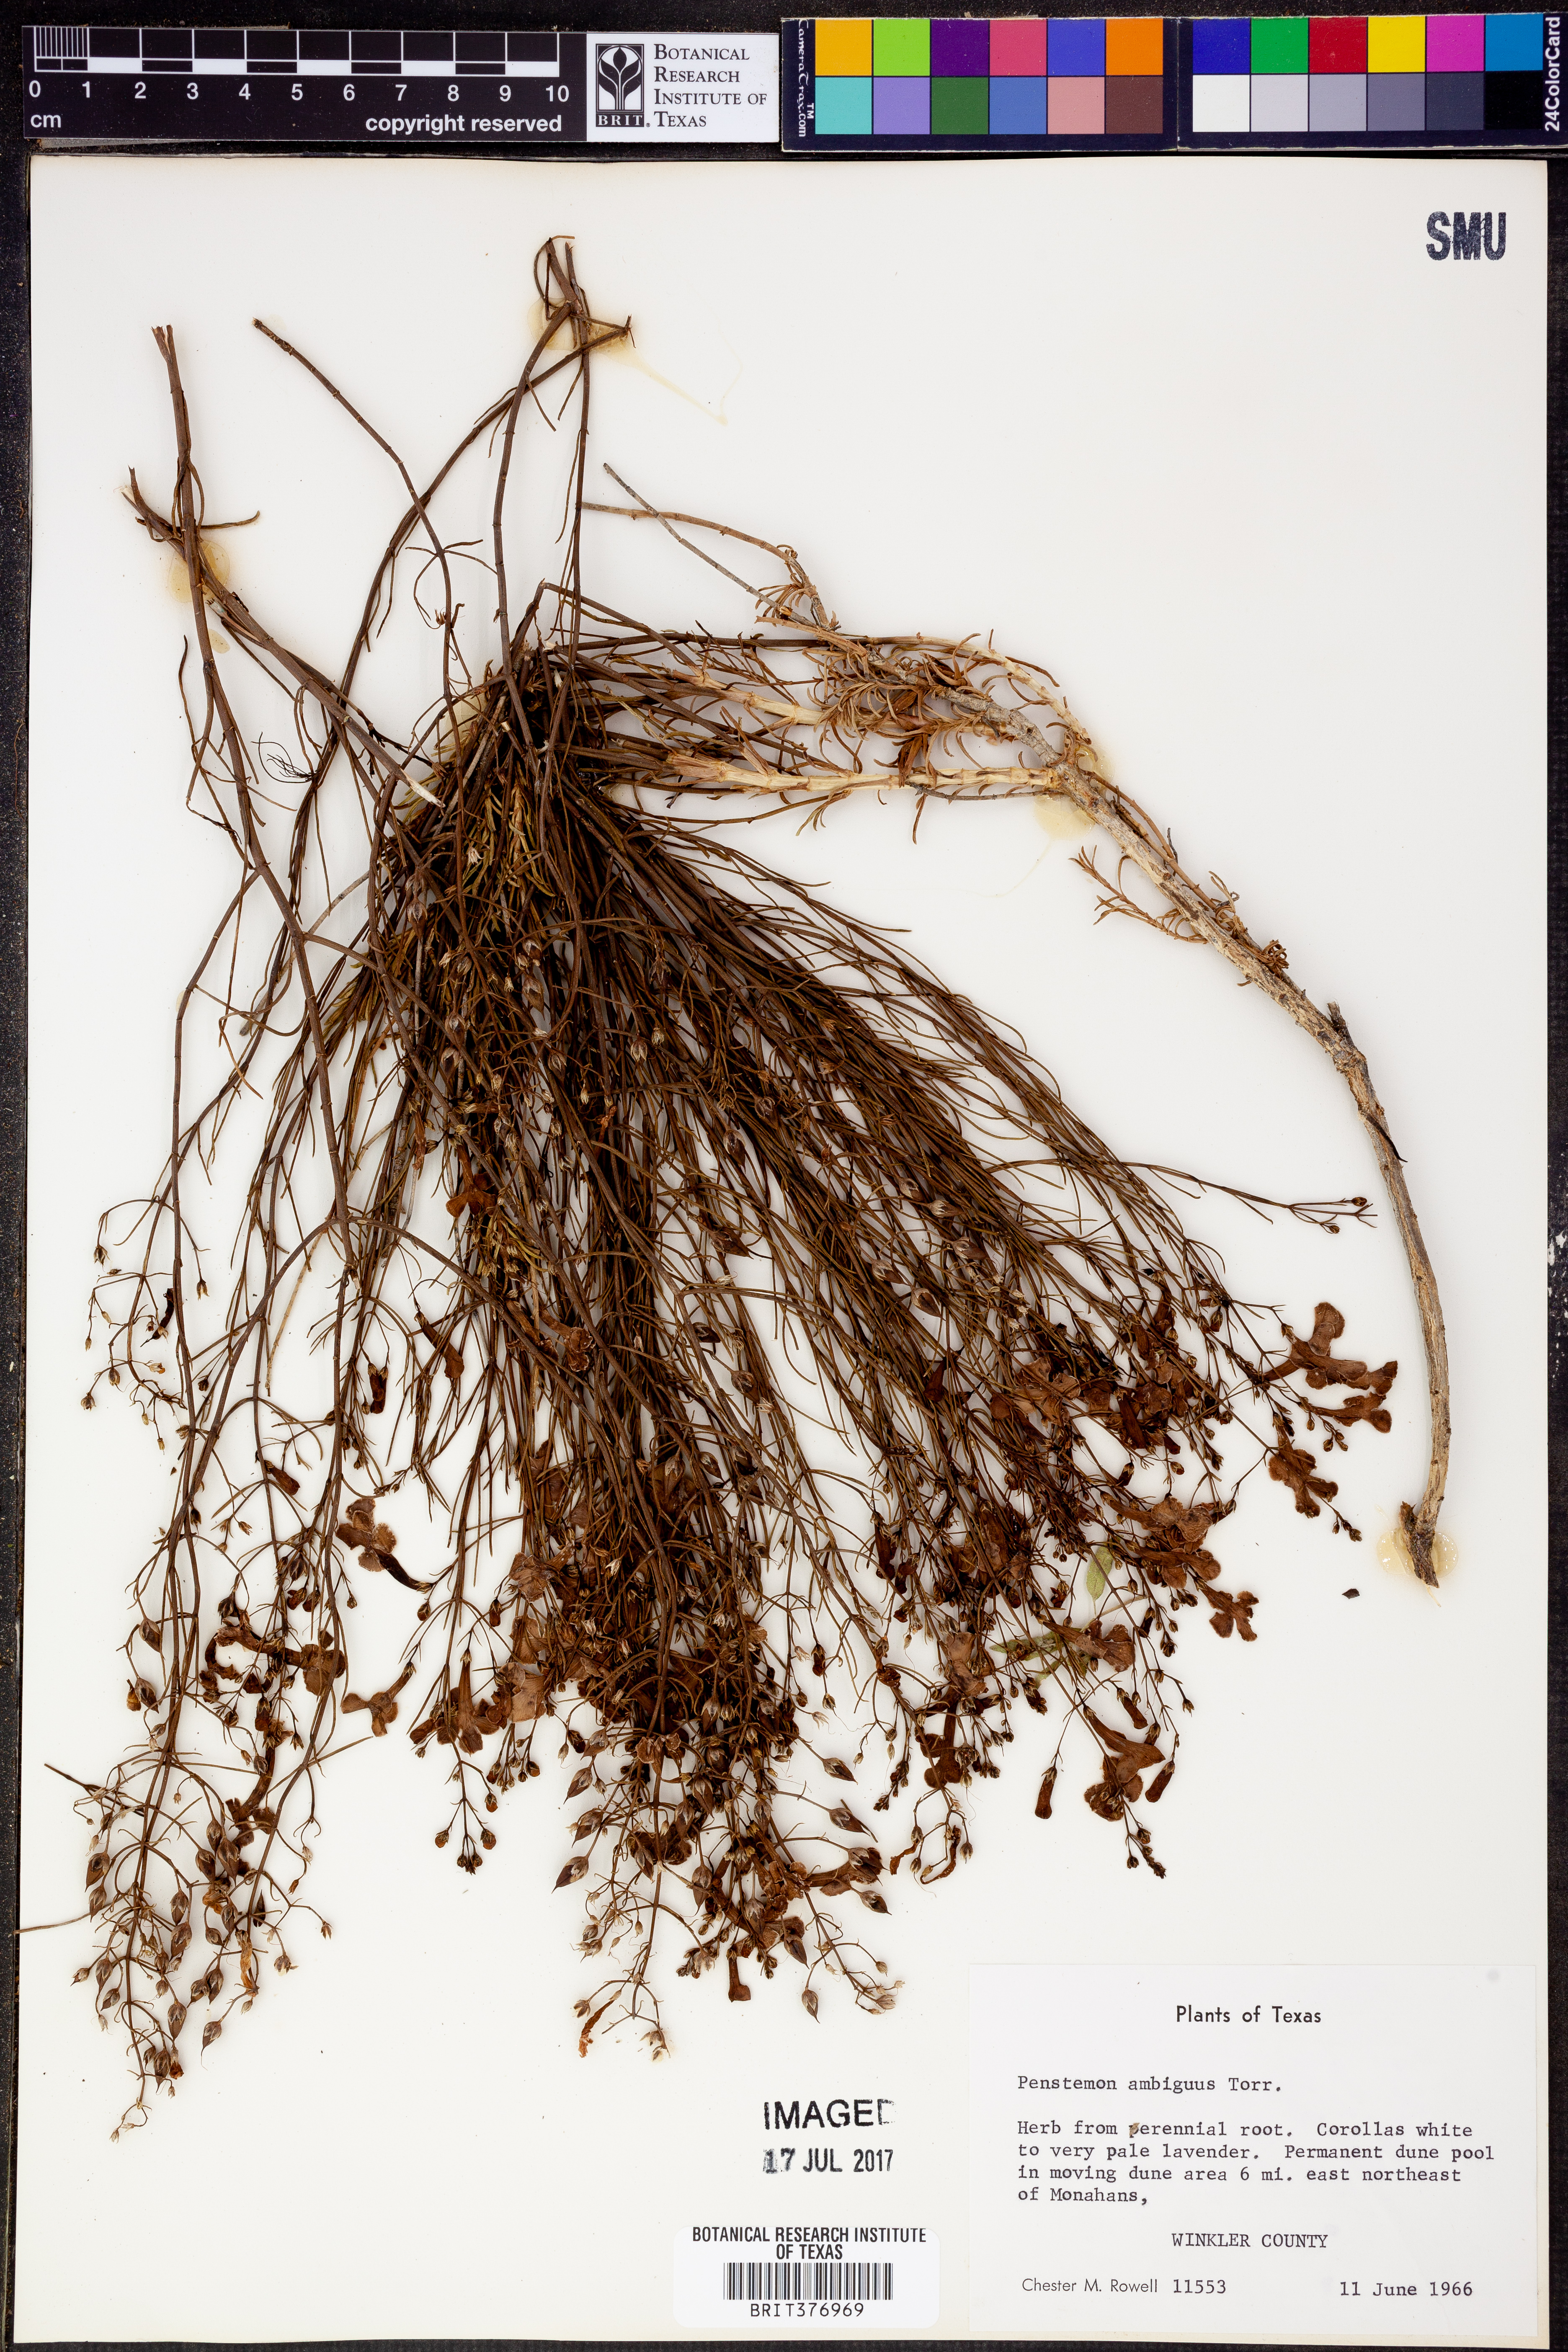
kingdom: Plantae
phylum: Tracheophyta
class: Magnoliopsida
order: Lamiales
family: Plantaginaceae
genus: Penstemon
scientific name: Penstemon ambiguus
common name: Bush penstemon
